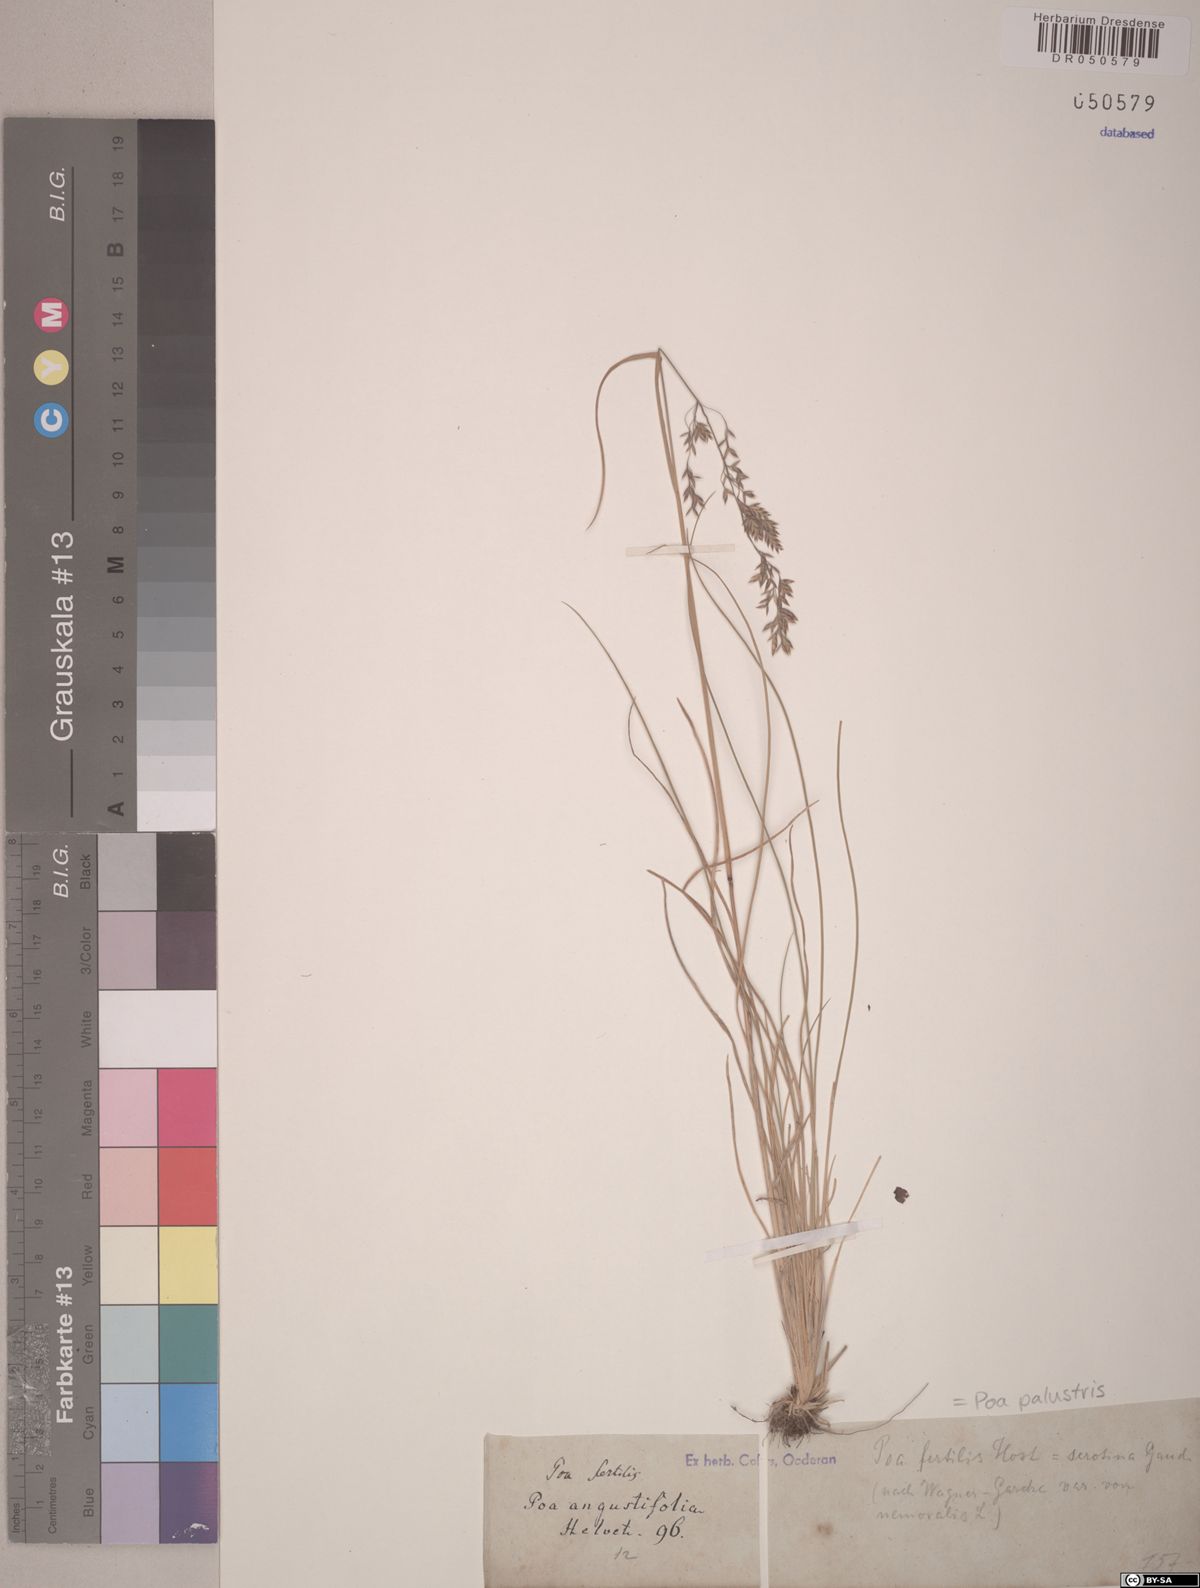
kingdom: Plantae
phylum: Tracheophyta
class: Liliopsida
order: Poales
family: Poaceae
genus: Poa
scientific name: Poa palustris
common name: Swamp meadow-grass
